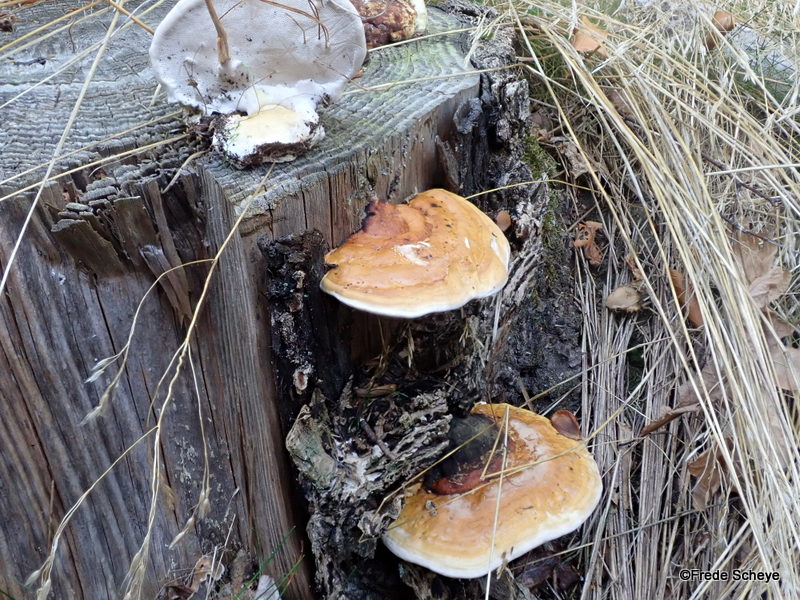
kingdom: Fungi
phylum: Basidiomycota
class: Agaricomycetes
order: Polyporales
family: Fomitopsidaceae
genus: Fomitopsis
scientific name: Fomitopsis pinicola
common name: randbæltet hovporesvamp
